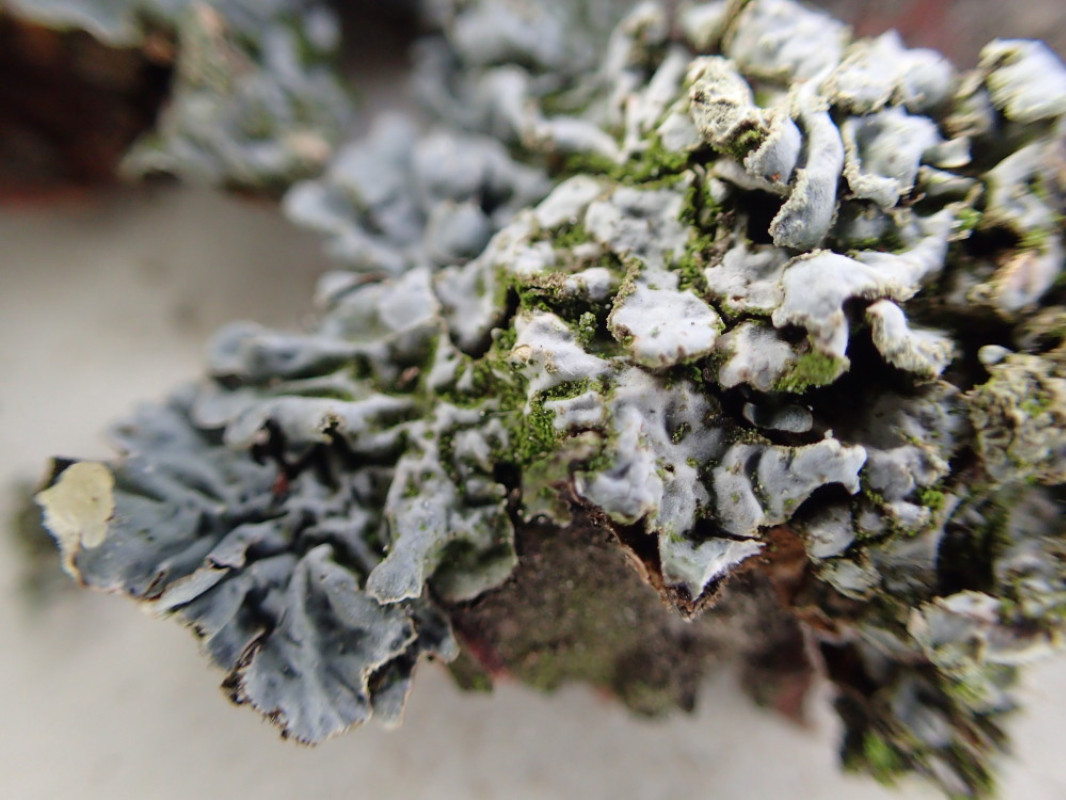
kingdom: Fungi
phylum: Ascomycota
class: Lecanoromycetes
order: Lecanorales
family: Parmeliaceae
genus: Parmelia
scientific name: Parmelia sulcata
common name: rynket skållav
